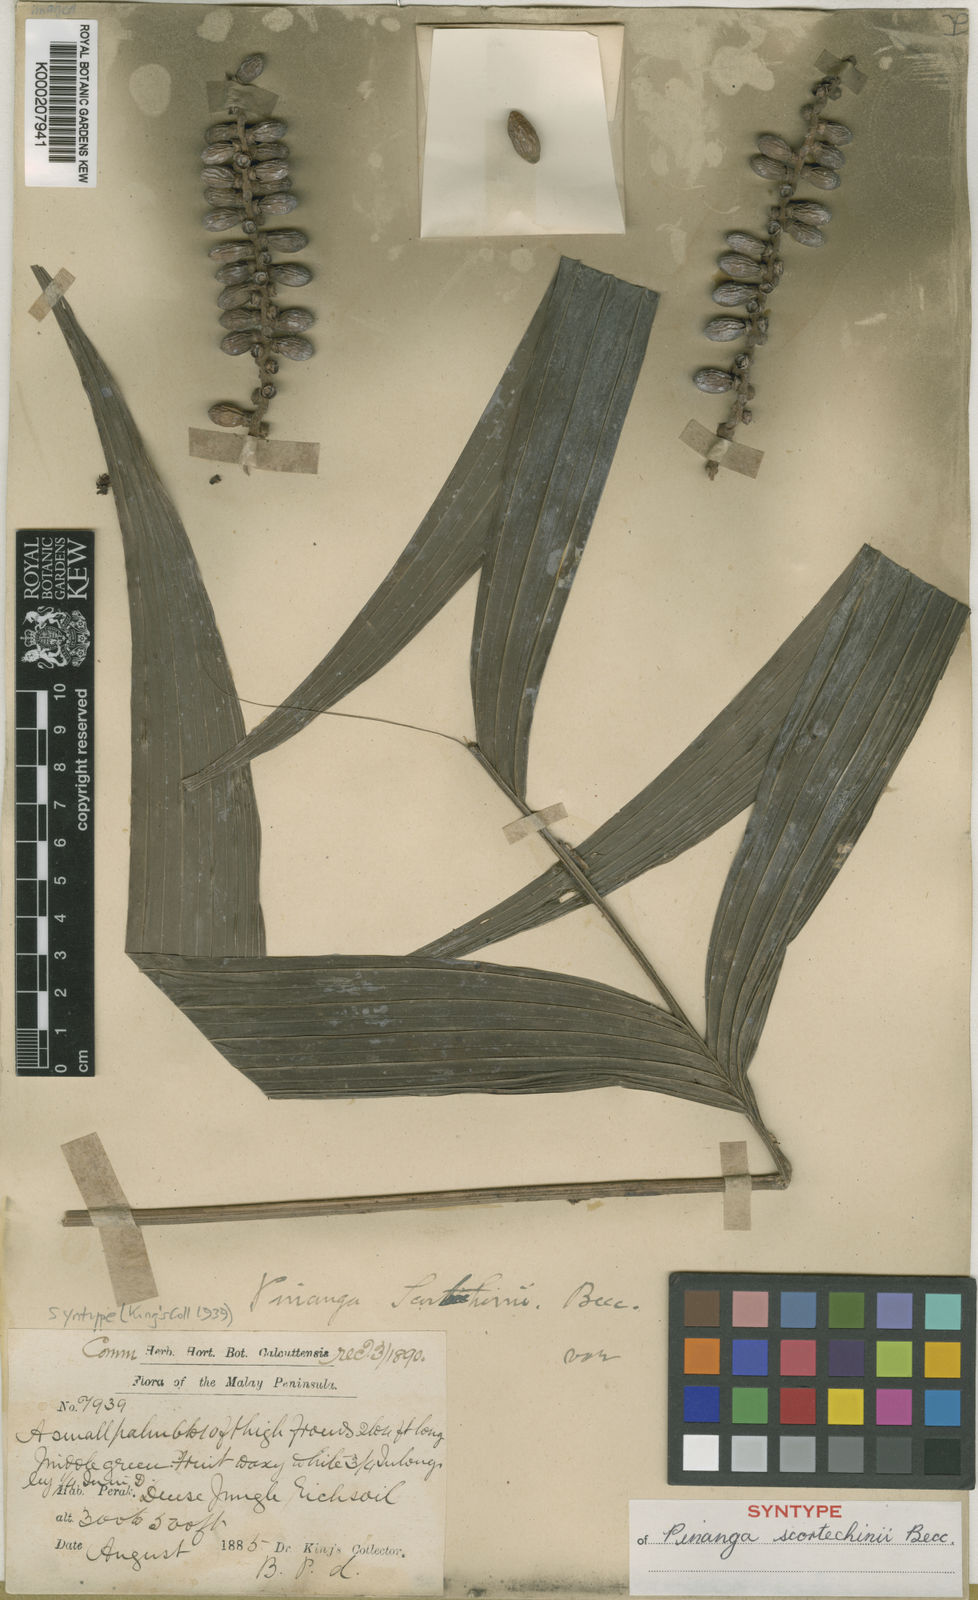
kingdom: Plantae
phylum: Tracheophyta
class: Liliopsida
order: Arecales
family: Arecaceae
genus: Pinanga
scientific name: Pinanga scortechinii
